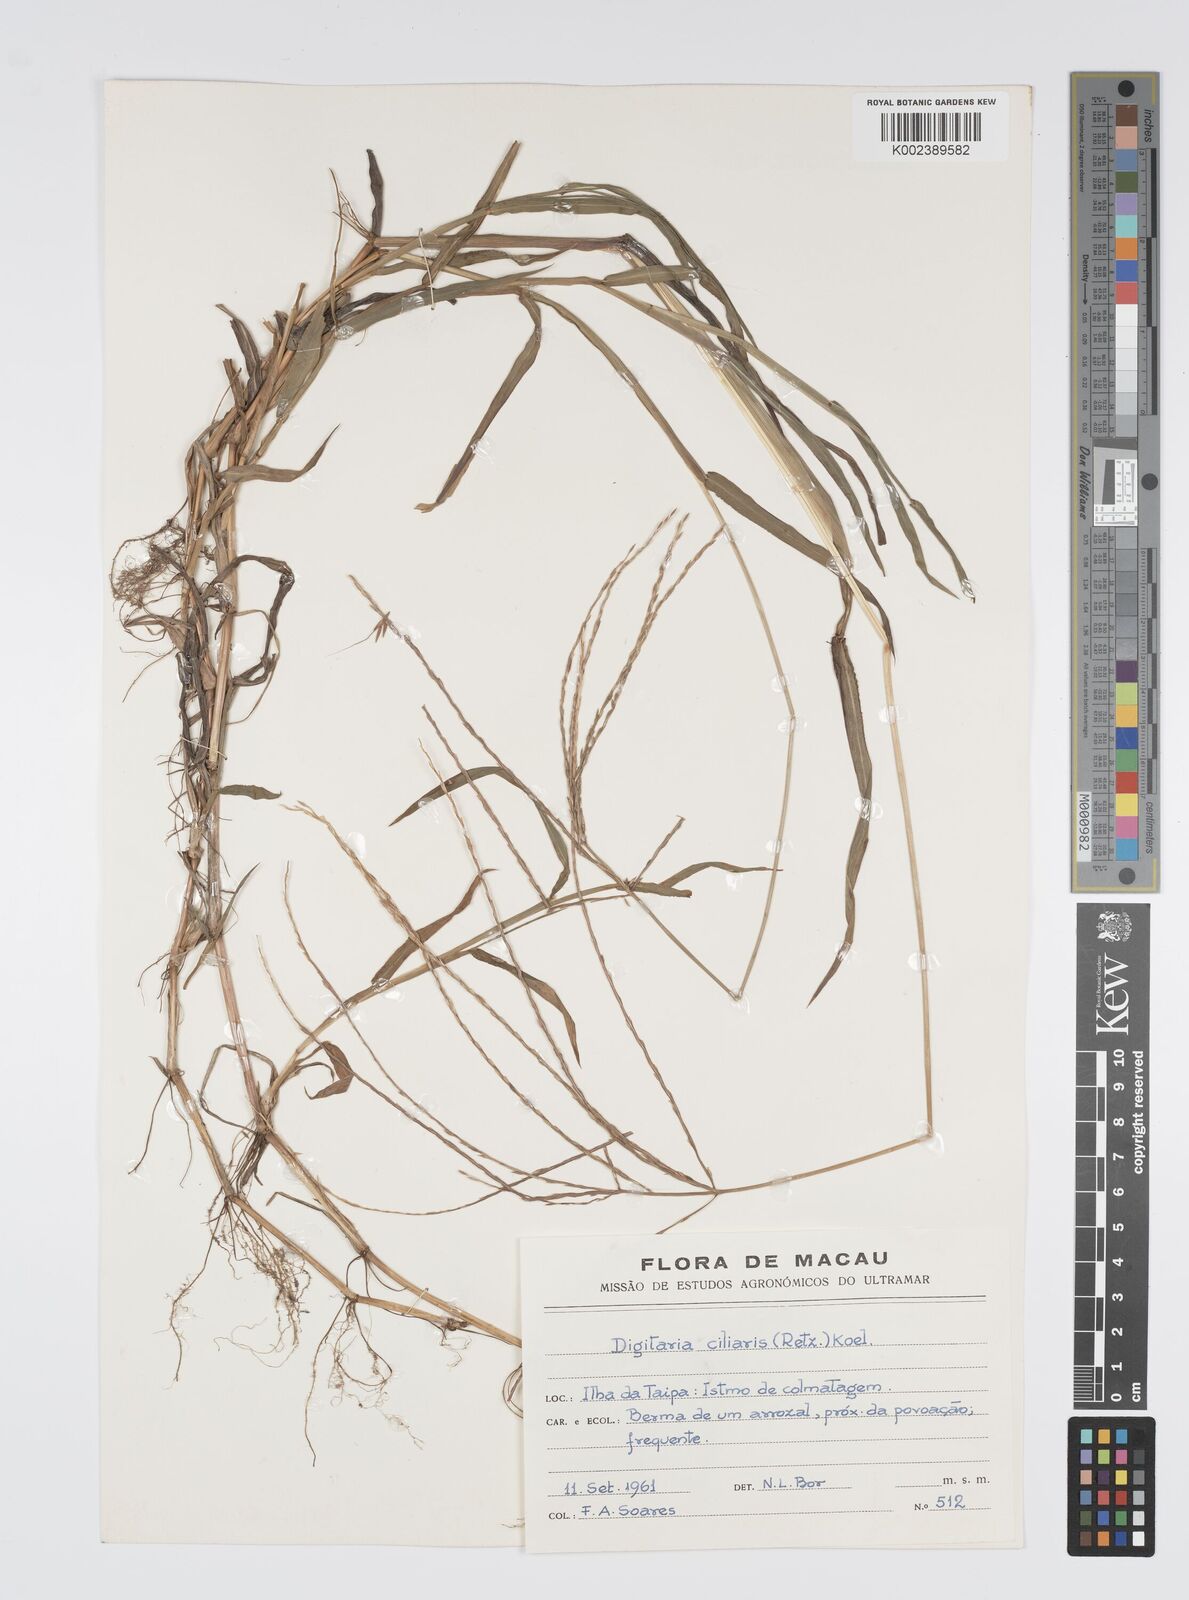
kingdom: Plantae
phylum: Tracheophyta
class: Liliopsida
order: Poales
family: Poaceae
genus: Digitaria
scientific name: Digitaria ciliaris
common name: Tropical finger-grass
